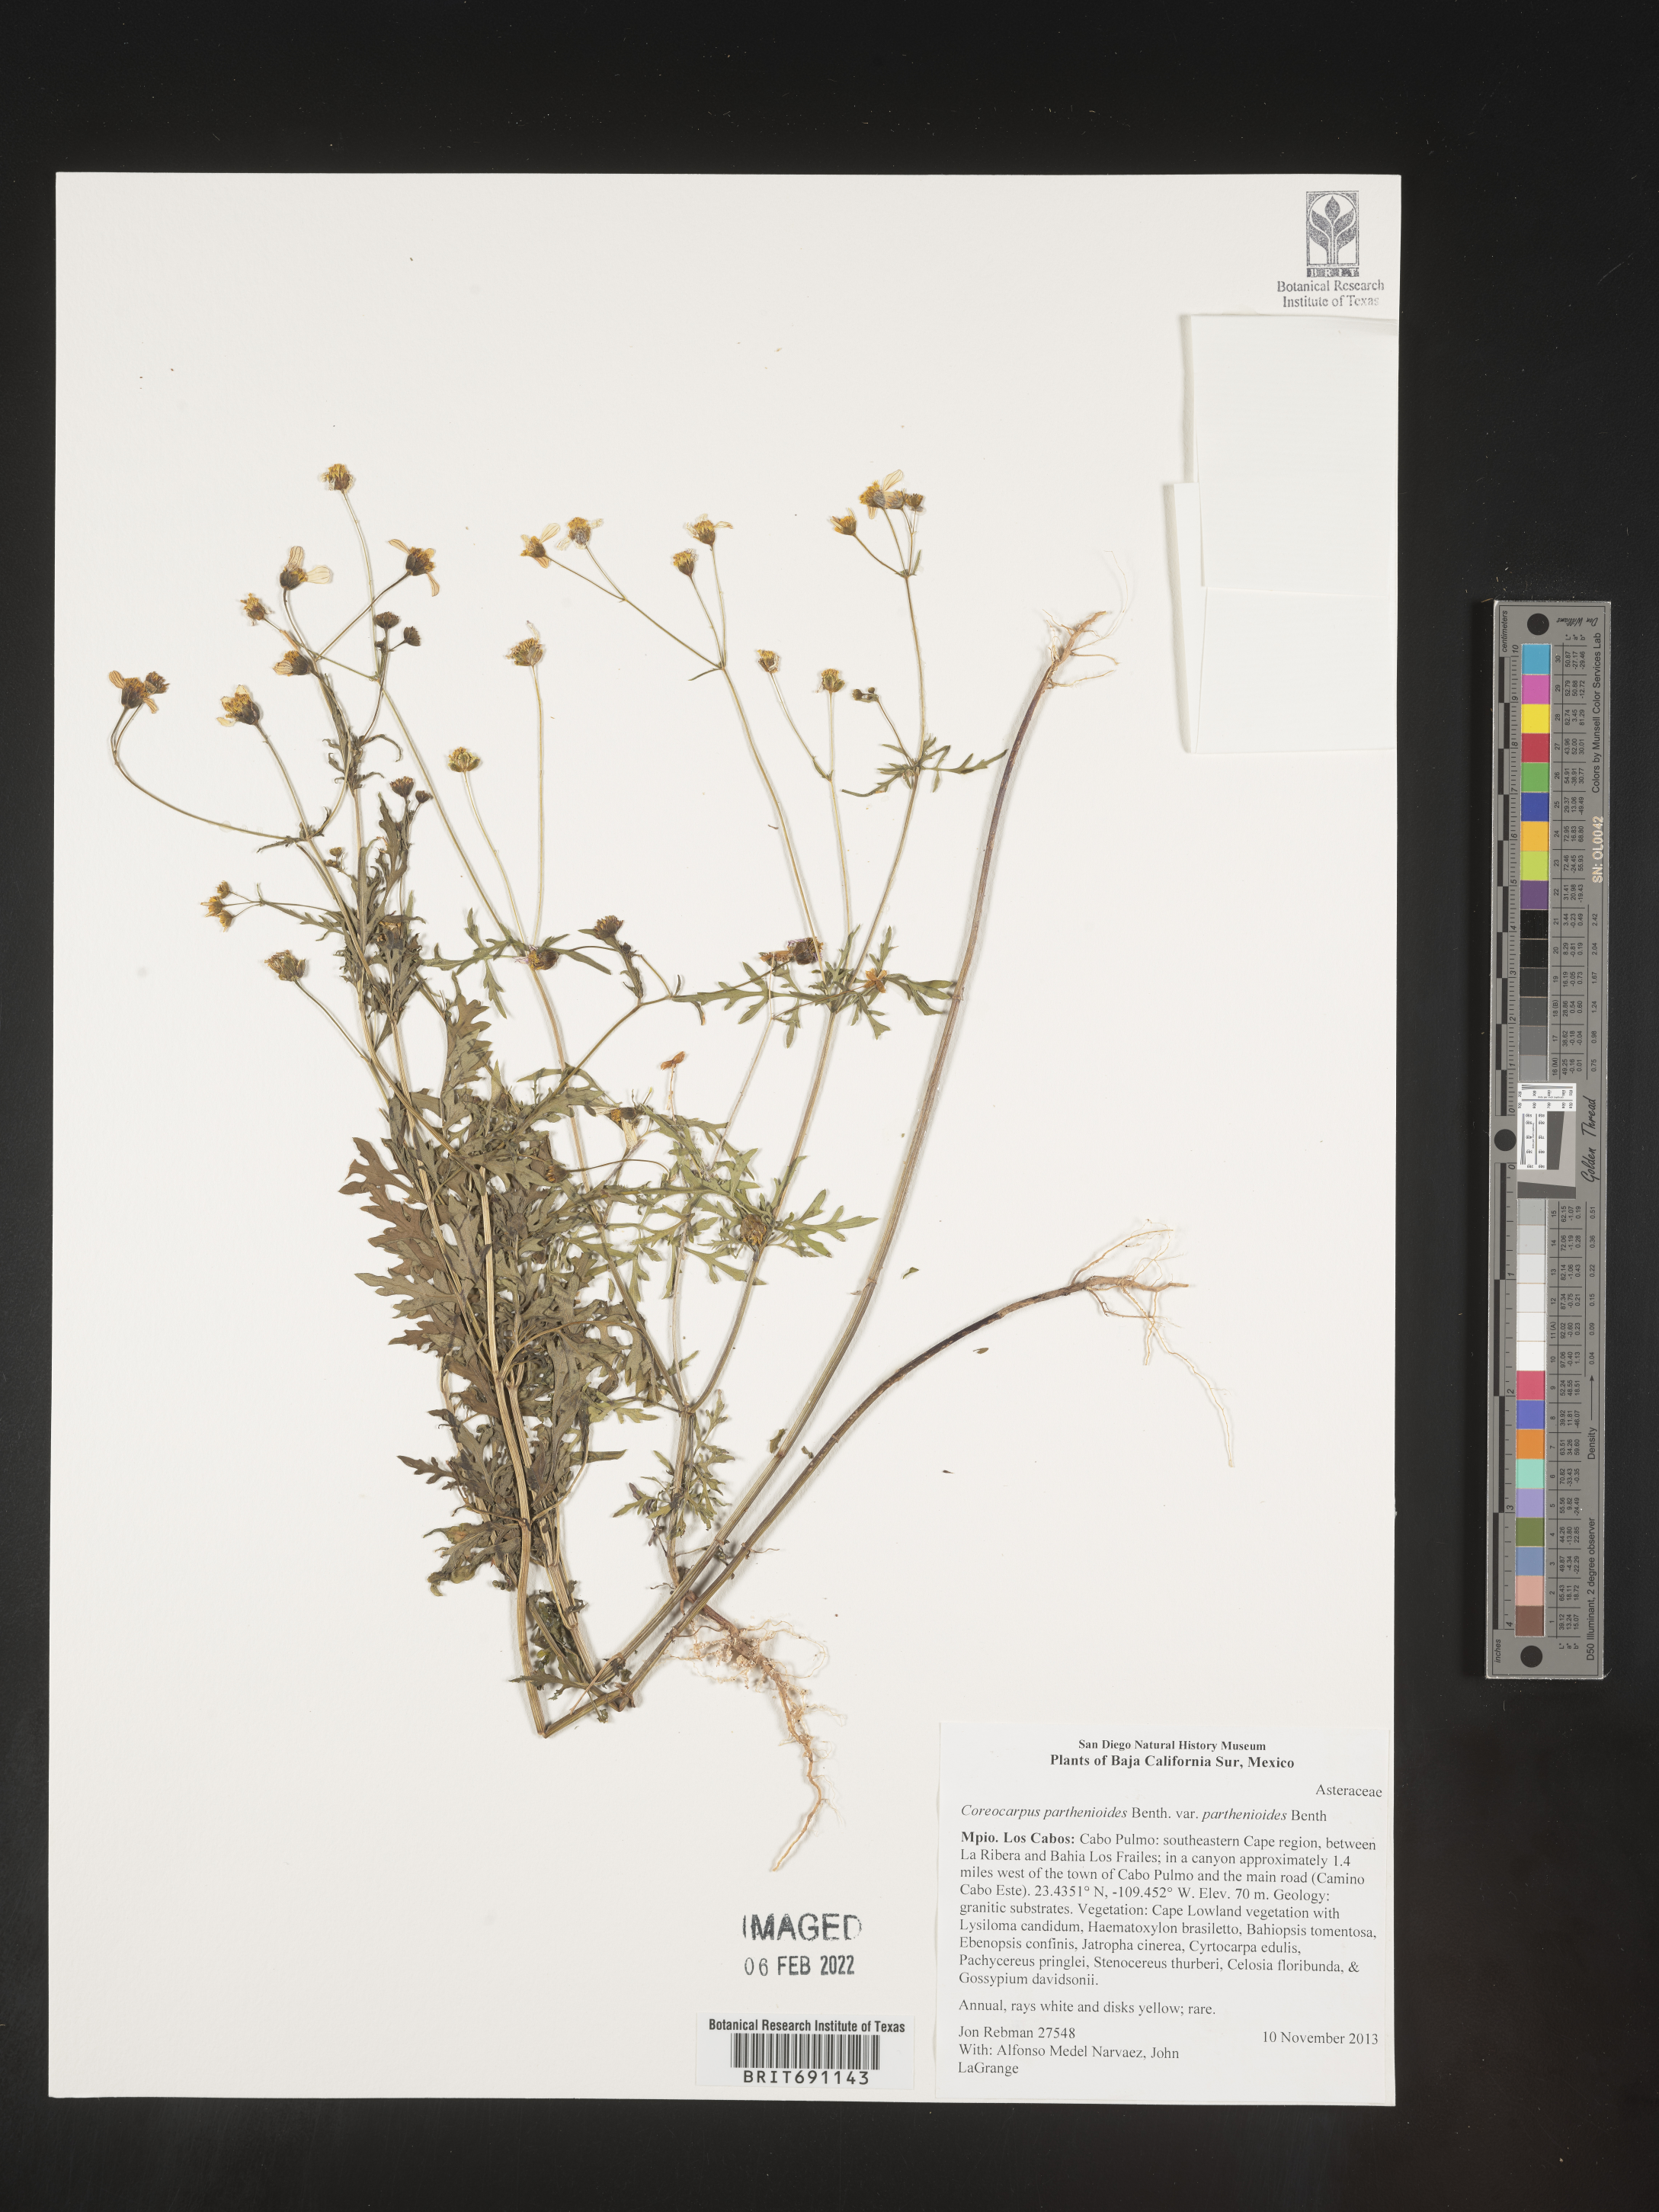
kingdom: Plantae
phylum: Tracheophyta
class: Magnoliopsida
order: Asterales
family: Asteraceae
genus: Coreocarpus
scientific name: Coreocarpus
